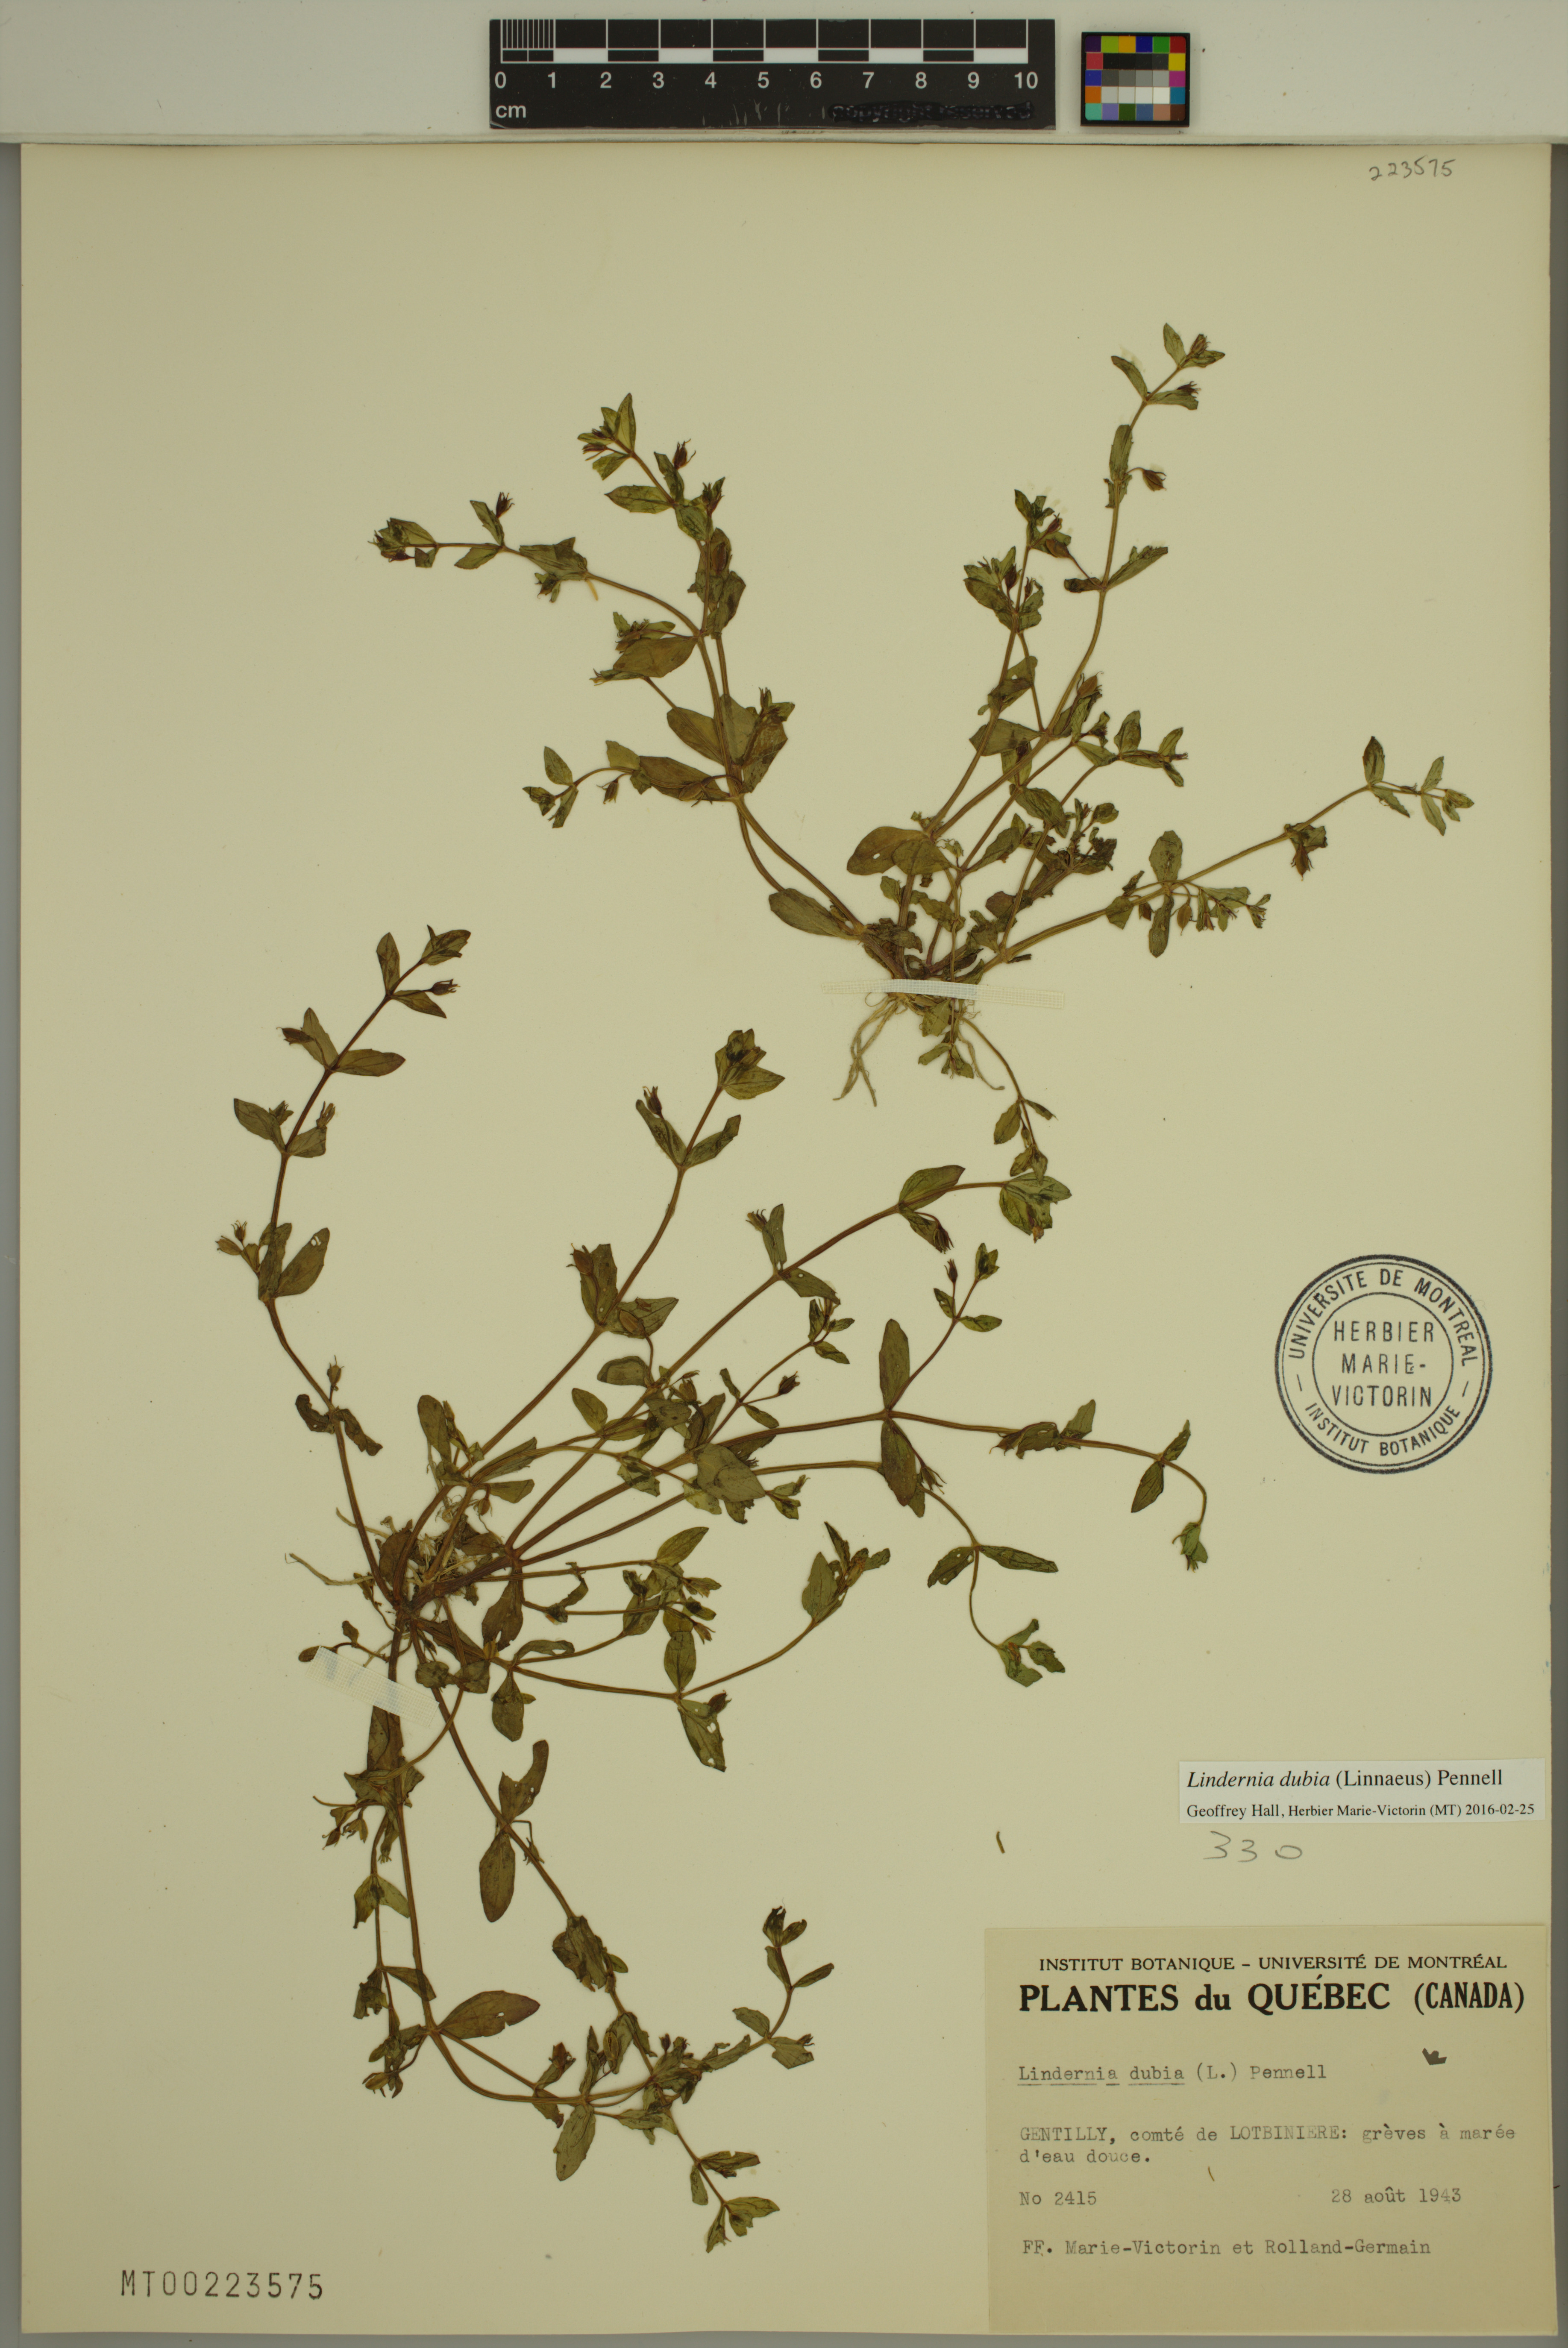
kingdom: Plantae
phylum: Tracheophyta
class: Magnoliopsida
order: Lamiales
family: Linderniaceae
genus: Lindernia
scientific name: Lindernia dubia
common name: Annual false pimpernel
